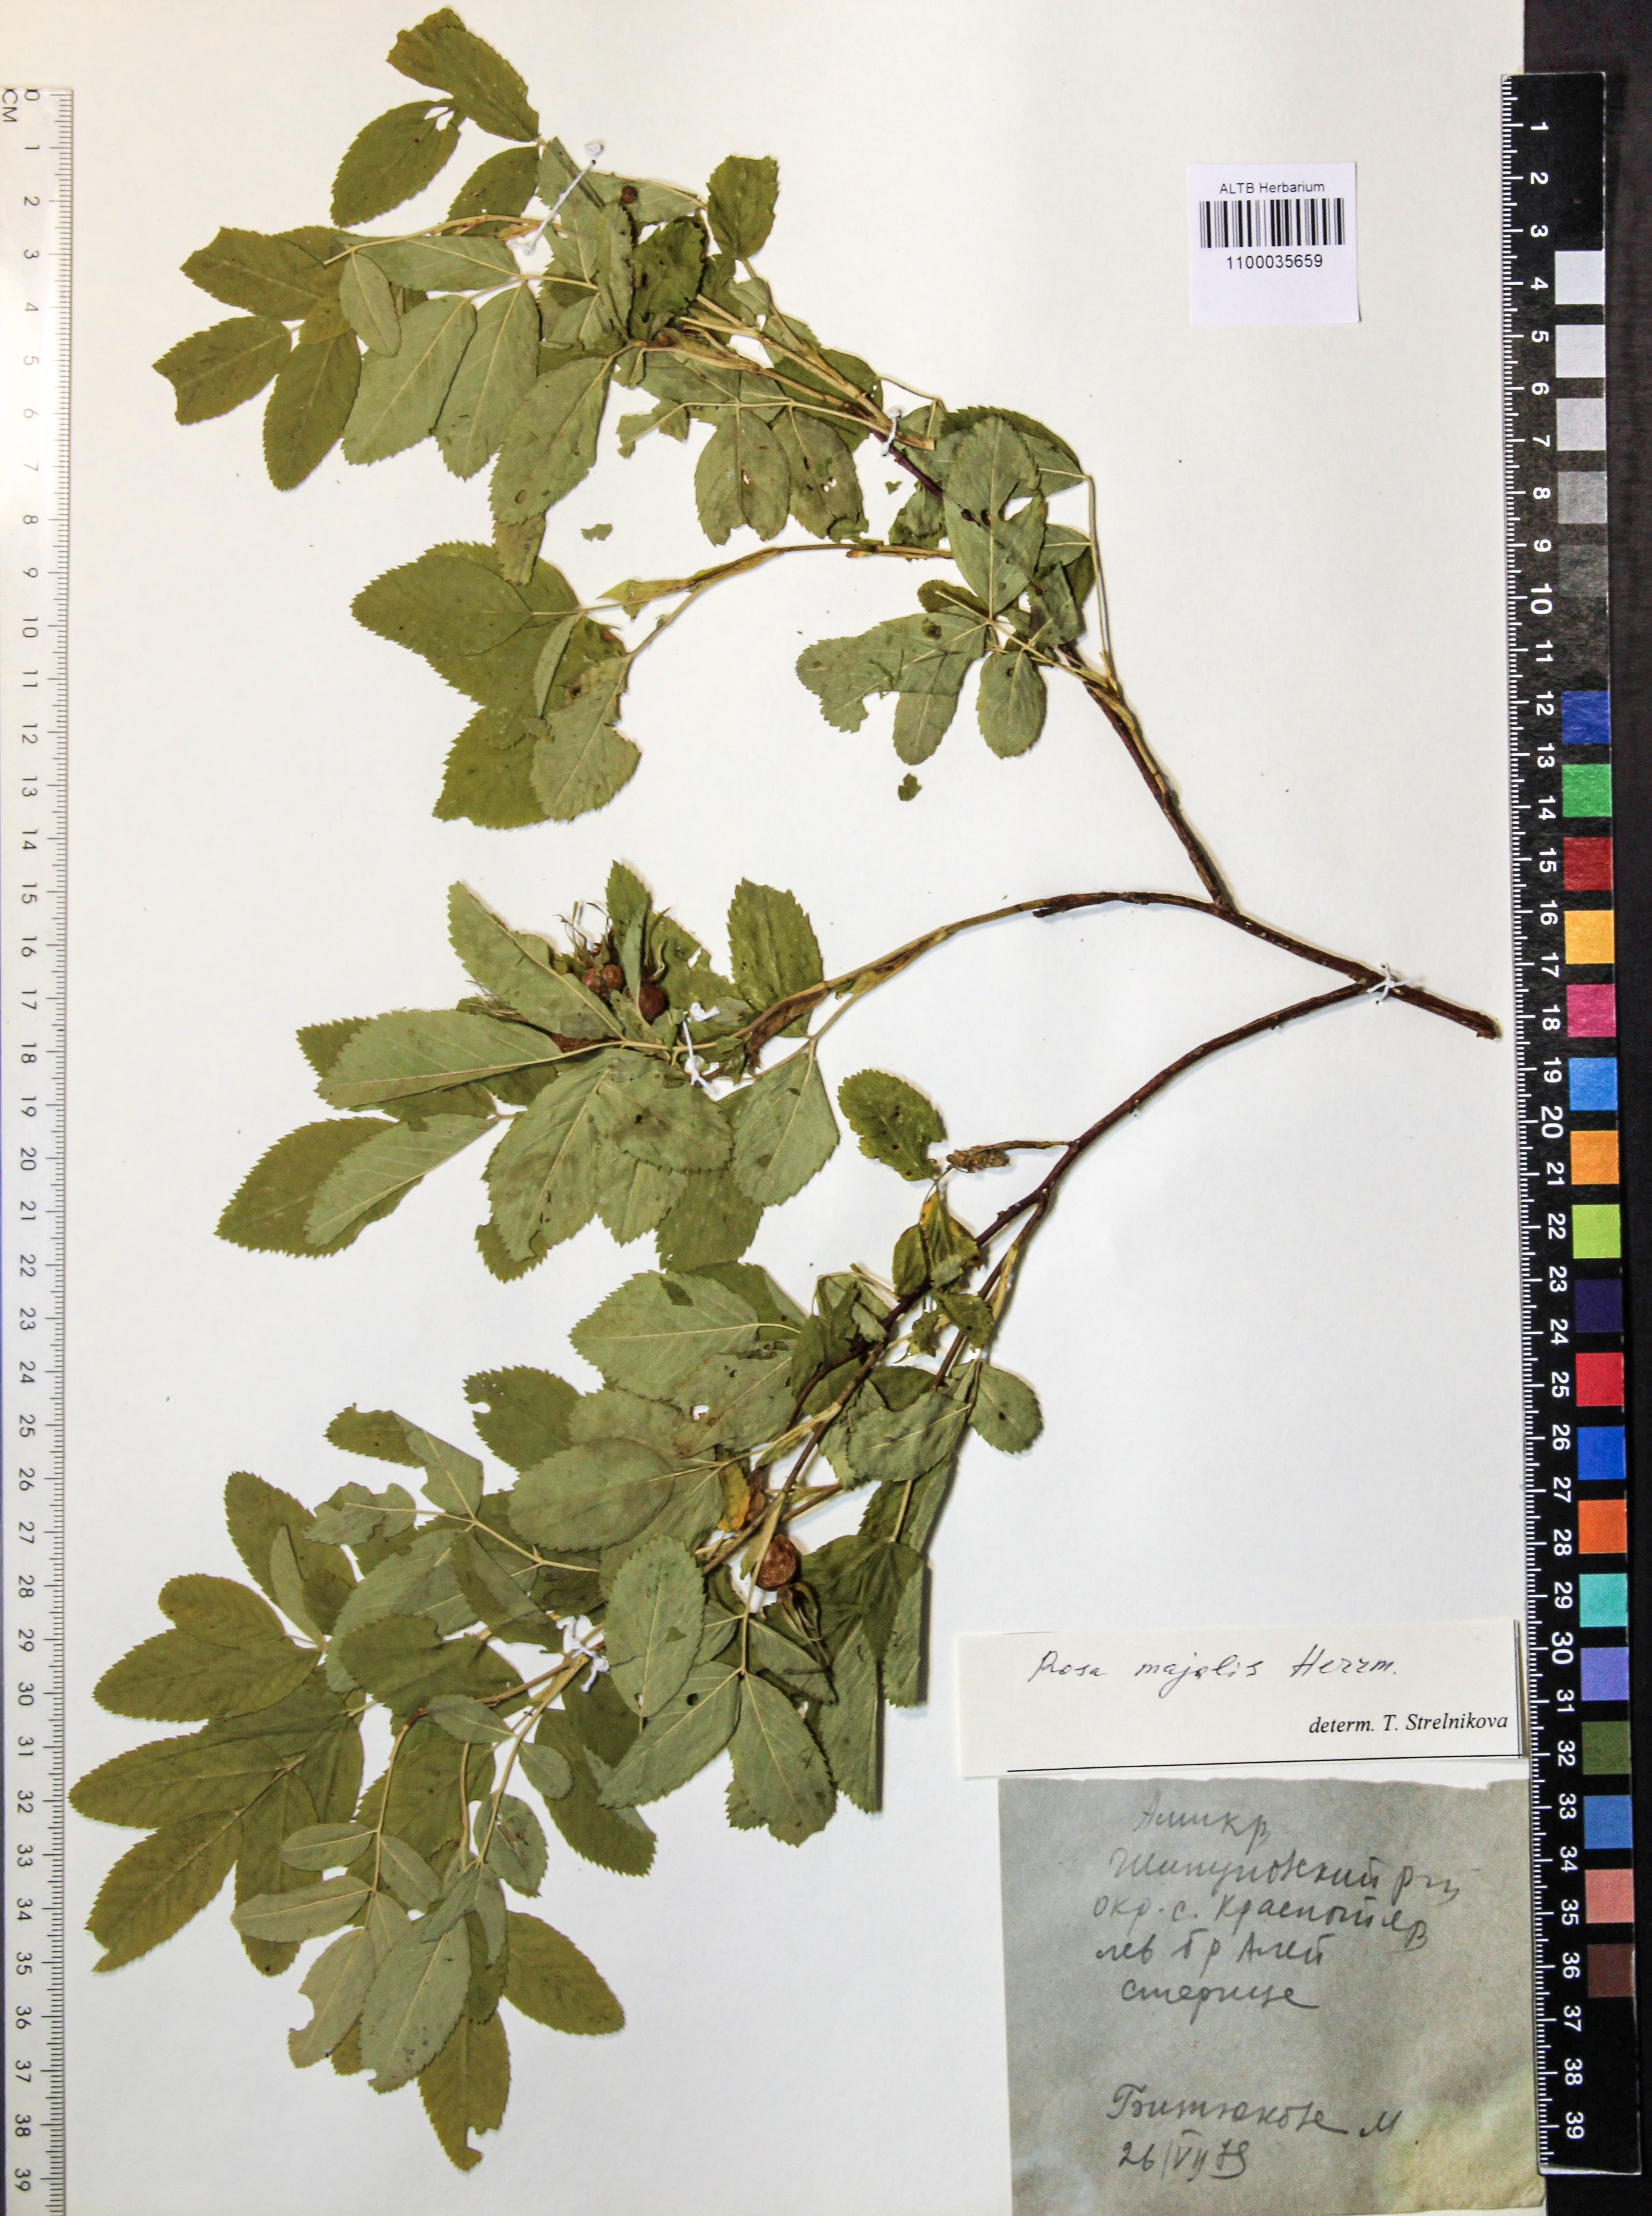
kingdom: Plantae
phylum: Tracheophyta
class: Magnoliopsida
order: Rosales
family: Rosaceae
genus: Rosa
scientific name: Rosa majalis
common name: Cinnamon rose
